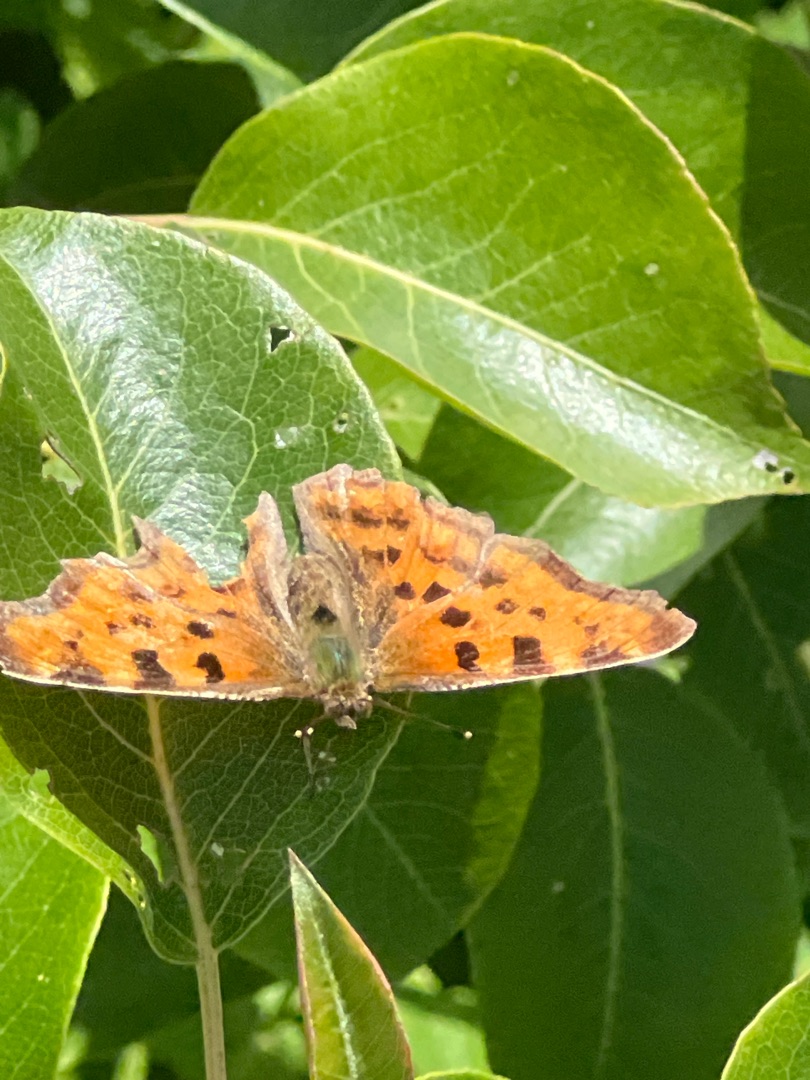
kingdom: Animalia
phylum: Arthropoda
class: Insecta
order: Lepidoptera
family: Nymphalidae
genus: Polygonia
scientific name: Polygonia c-album
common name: Det hvide C
